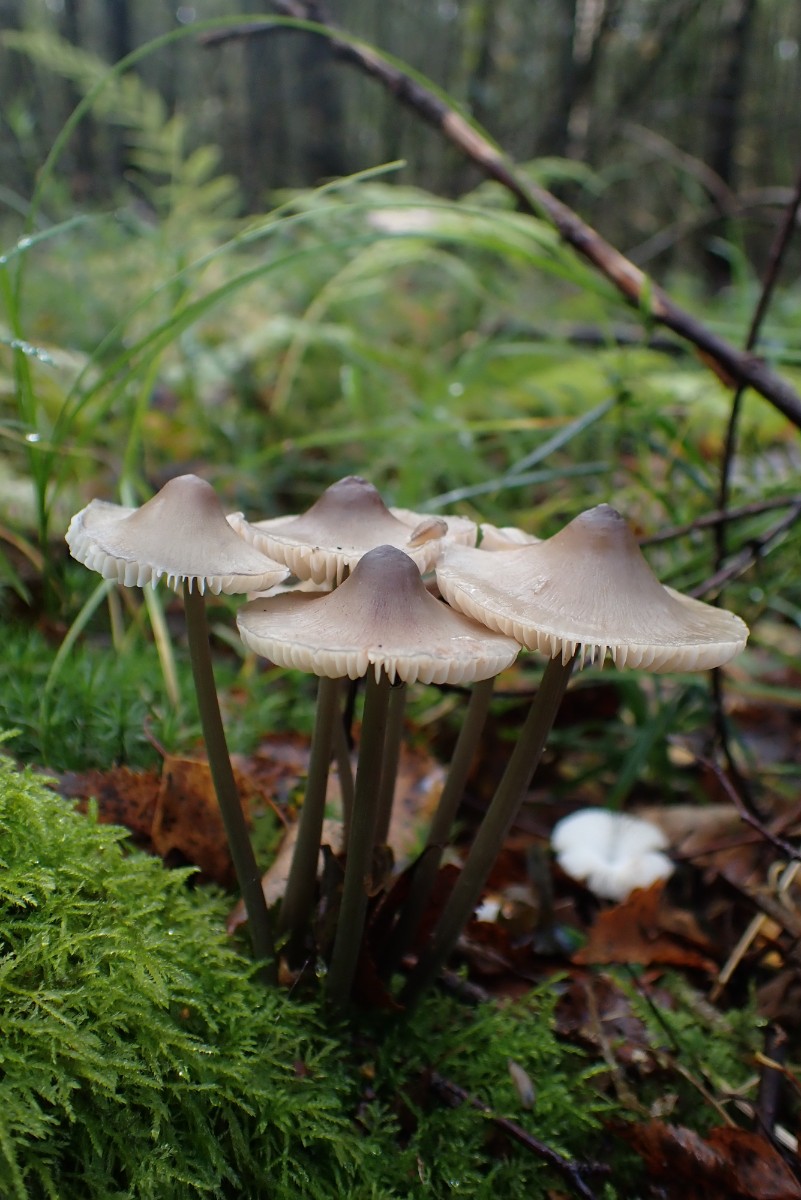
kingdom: Fungi
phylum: Basidiomycota
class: Agaricomycetes
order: Agaricales
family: Mycenaceae
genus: Mycena
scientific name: Mycena polygramma
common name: mangestribet huesvamp
